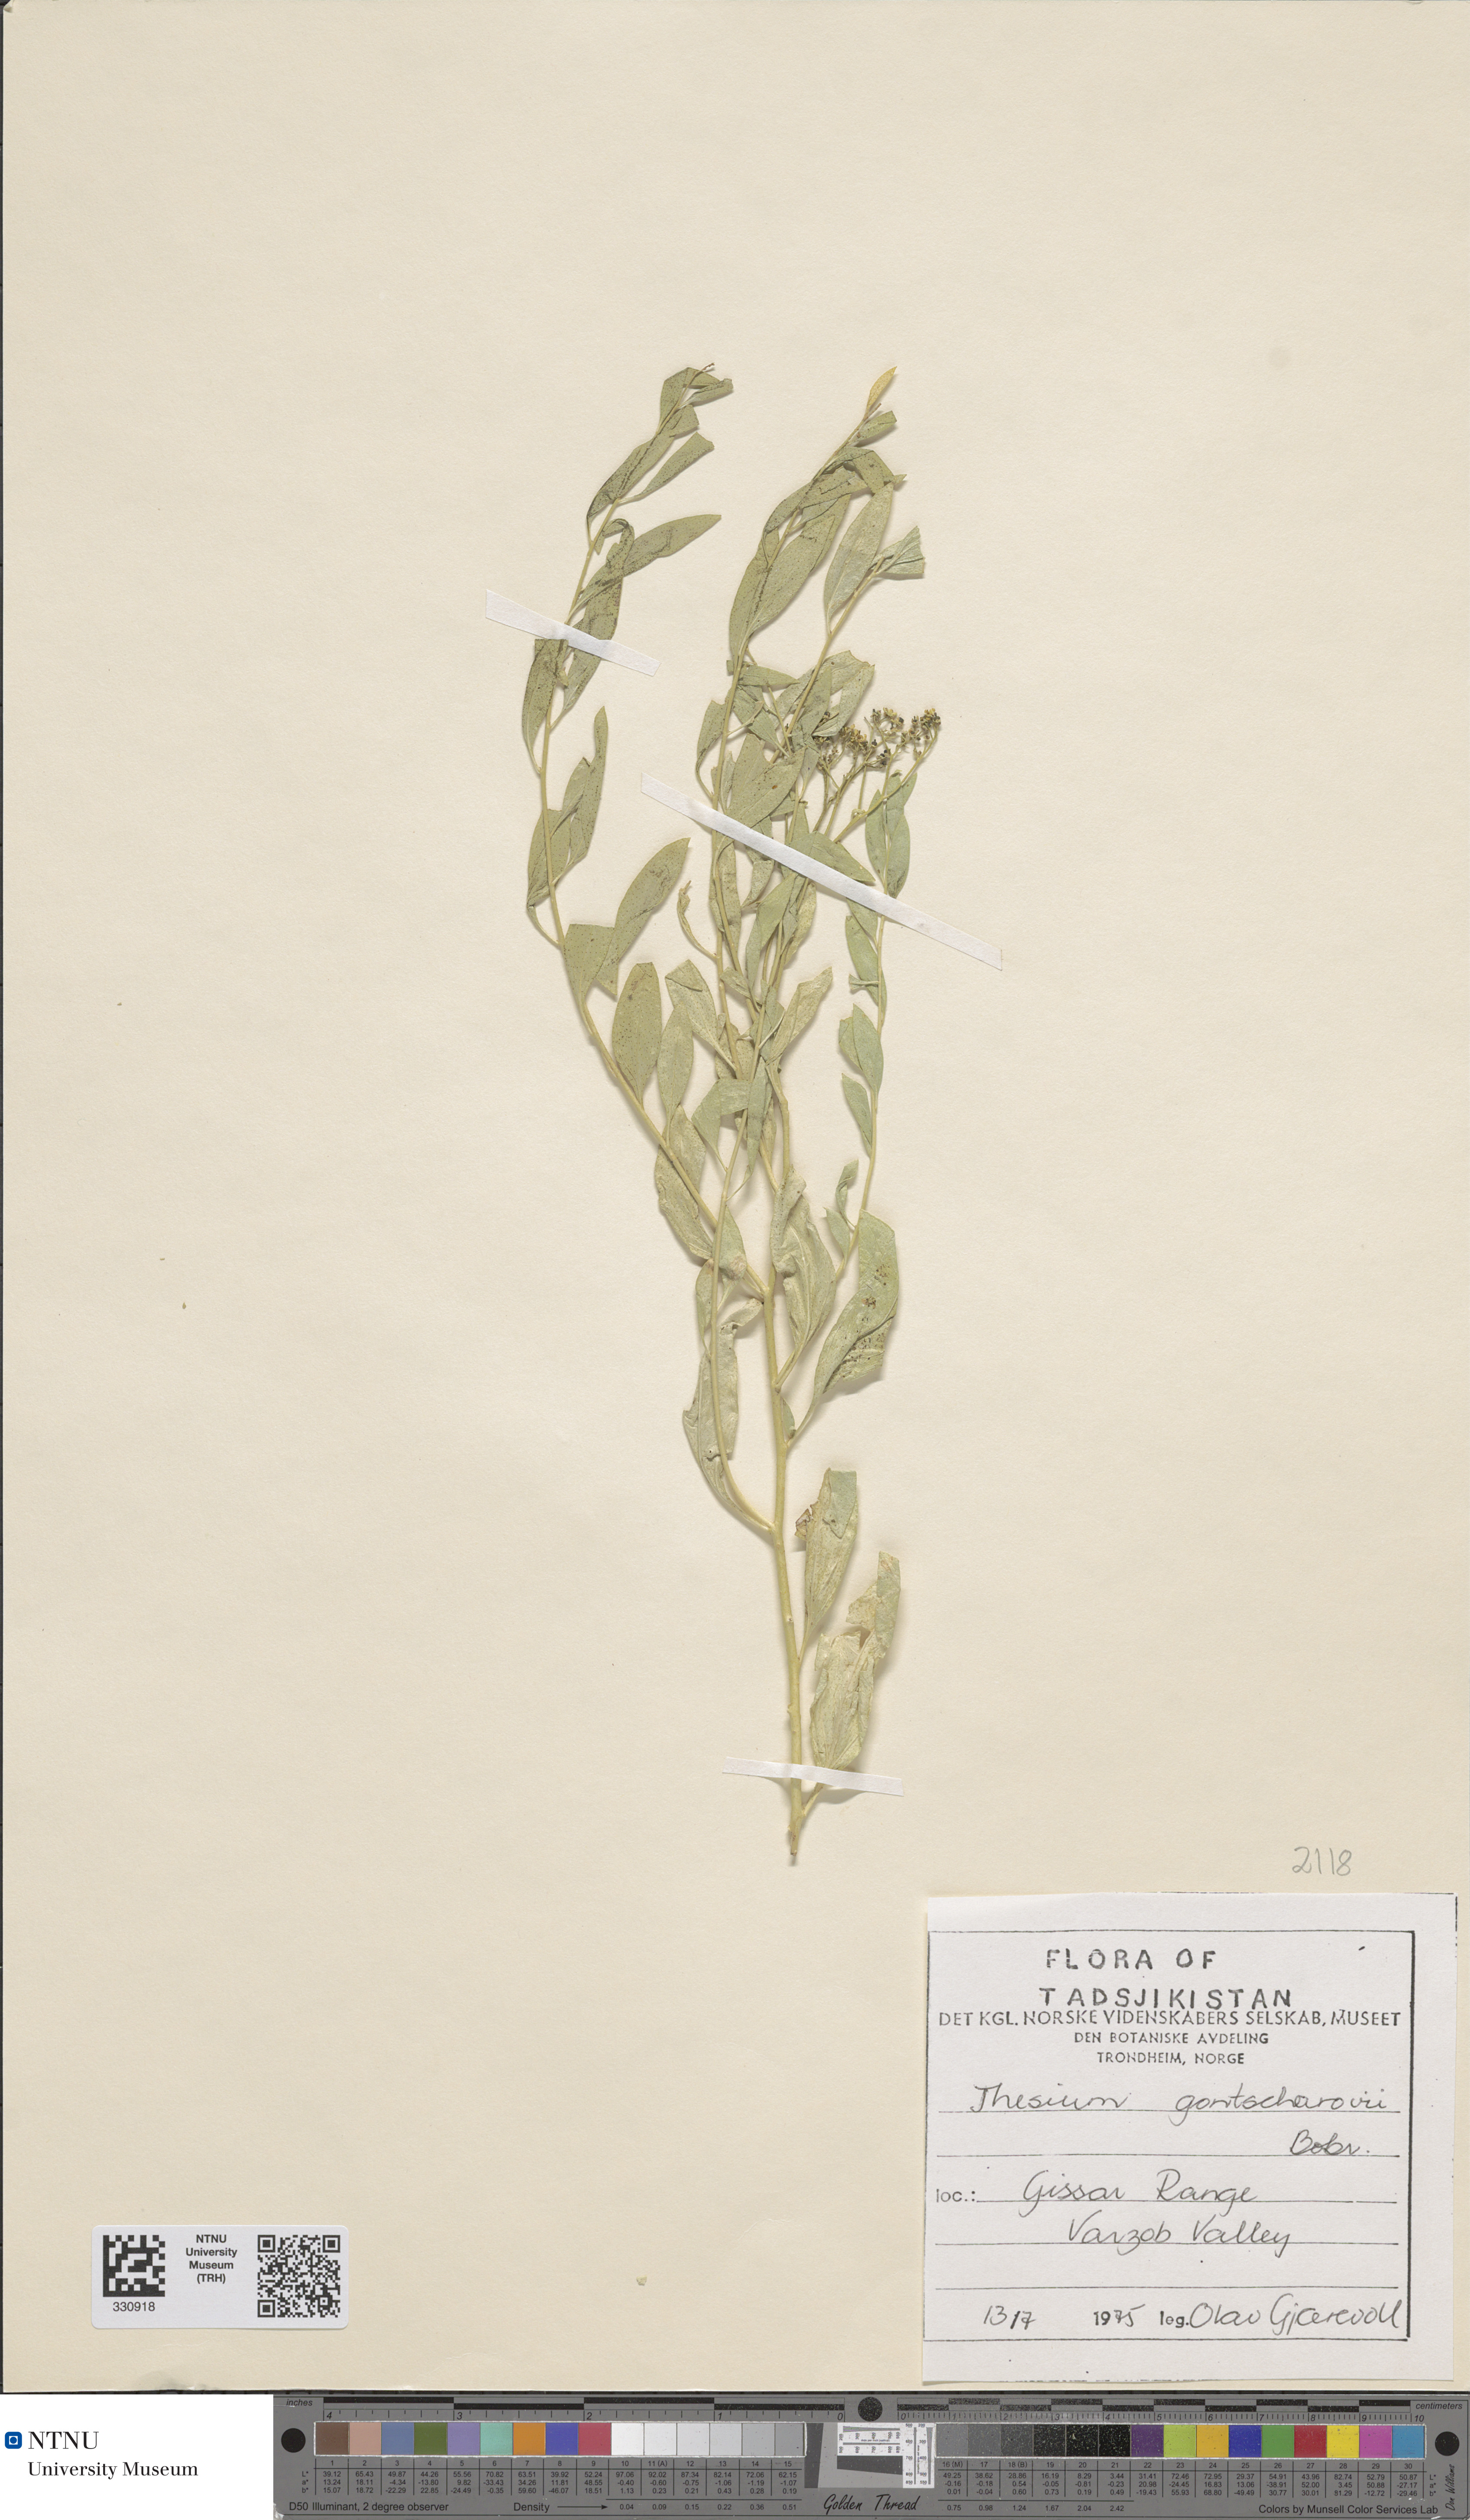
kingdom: Plantae
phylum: Tracheophyta
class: Magnoliopsida
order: Santalales
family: Thesiaceae
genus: Thesium
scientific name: Thesium gontscharovii
